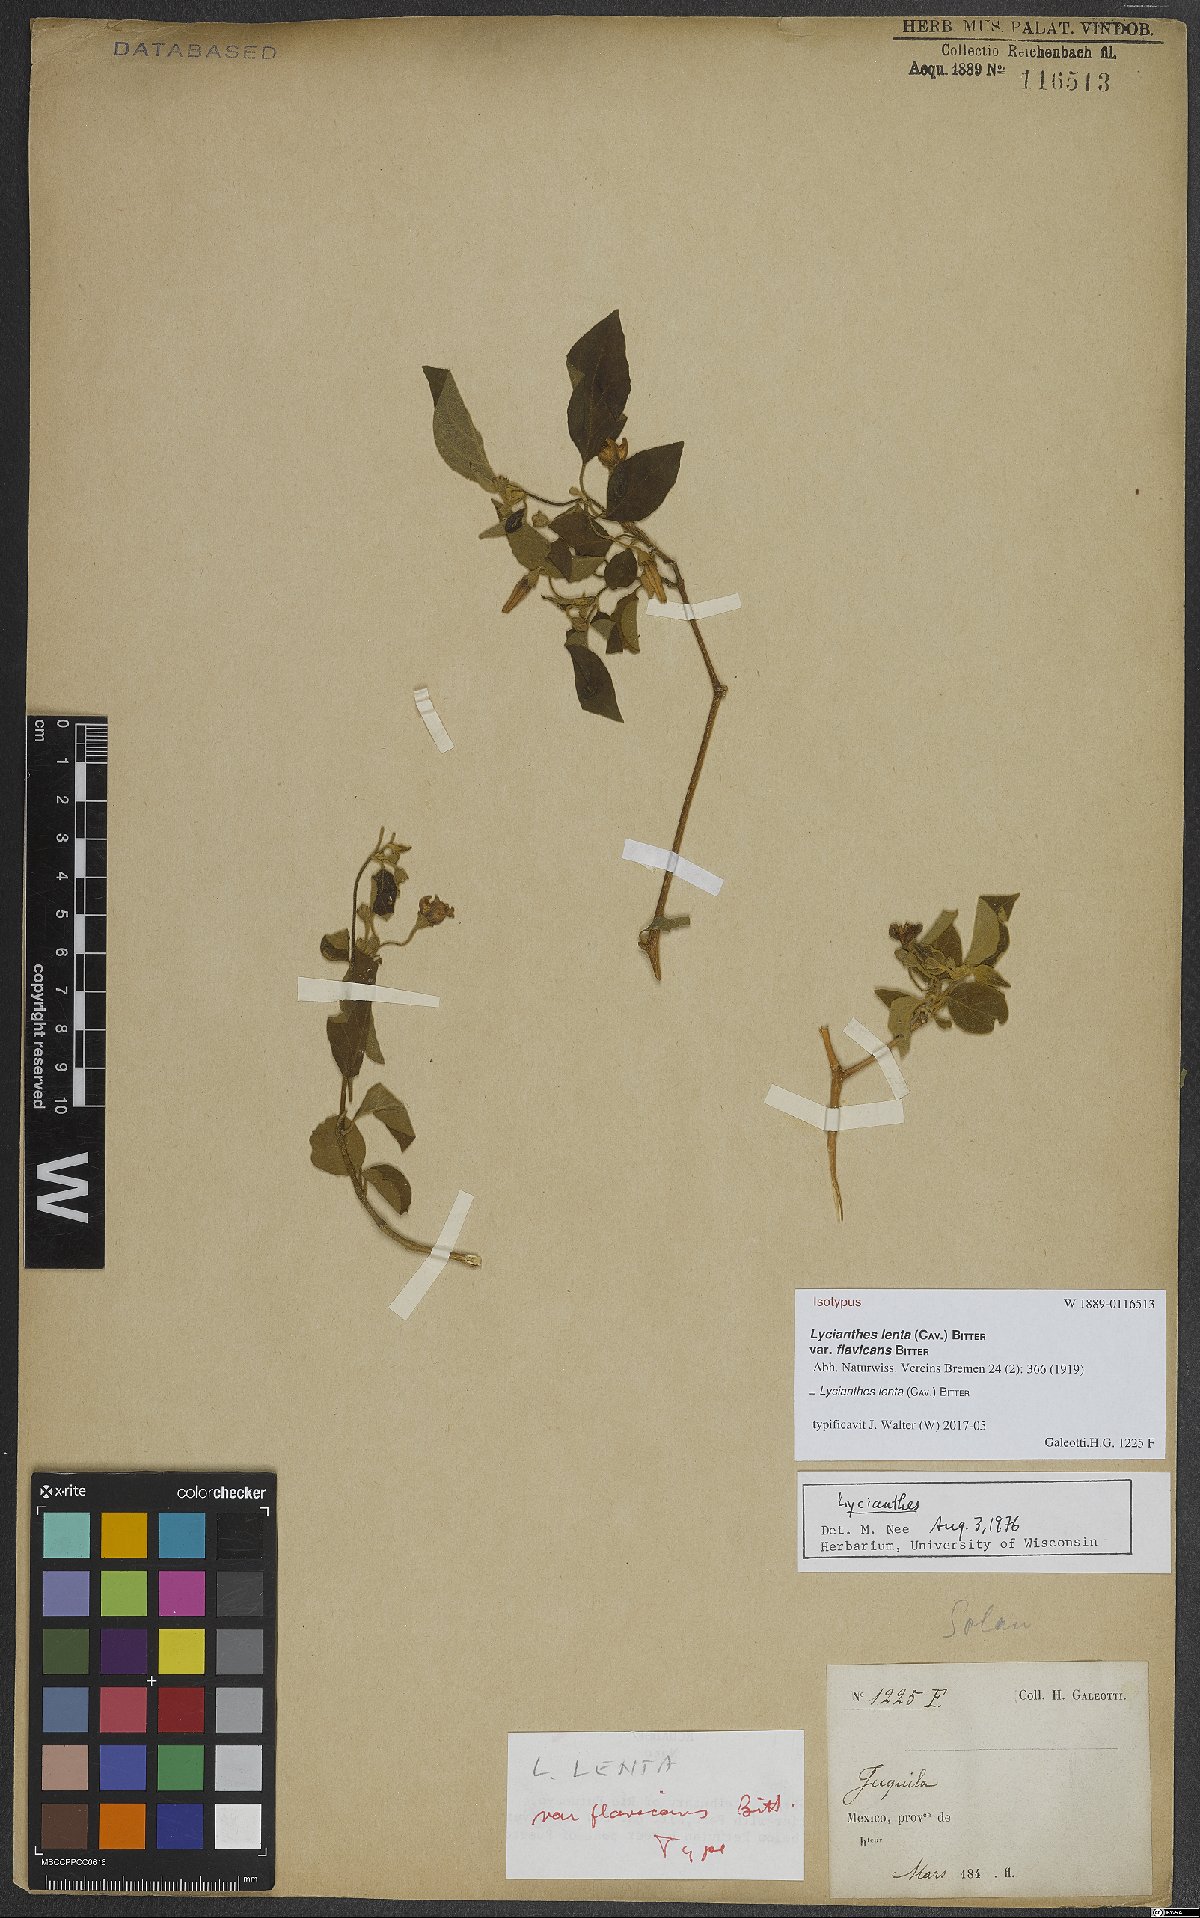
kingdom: Plantae
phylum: Tracheophyta
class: Magnoliopsida
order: Solanales
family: Solanaceae
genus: Lycianthes
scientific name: Lycianthes scandens
